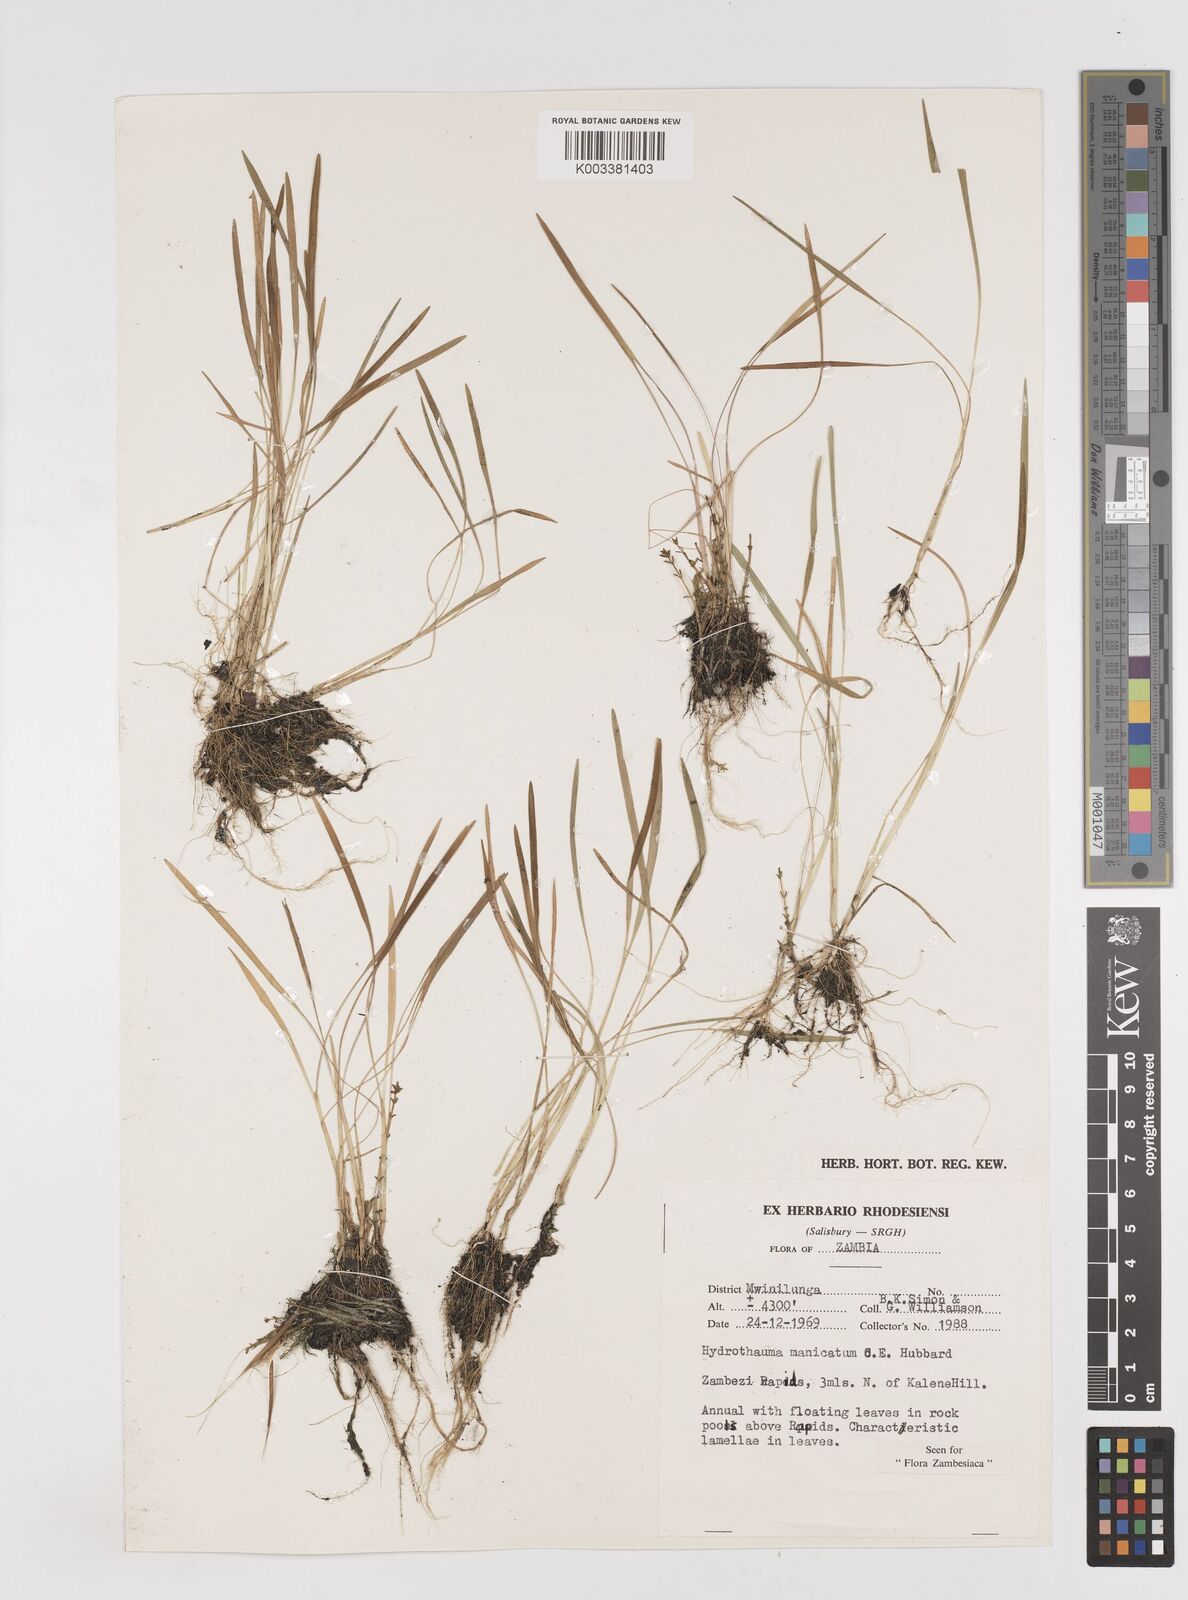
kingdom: Plantae
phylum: Tracheophyta
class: Liliopsida
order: Poales
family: Poaceae
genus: Hydrothauma
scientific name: Hydrothauma
